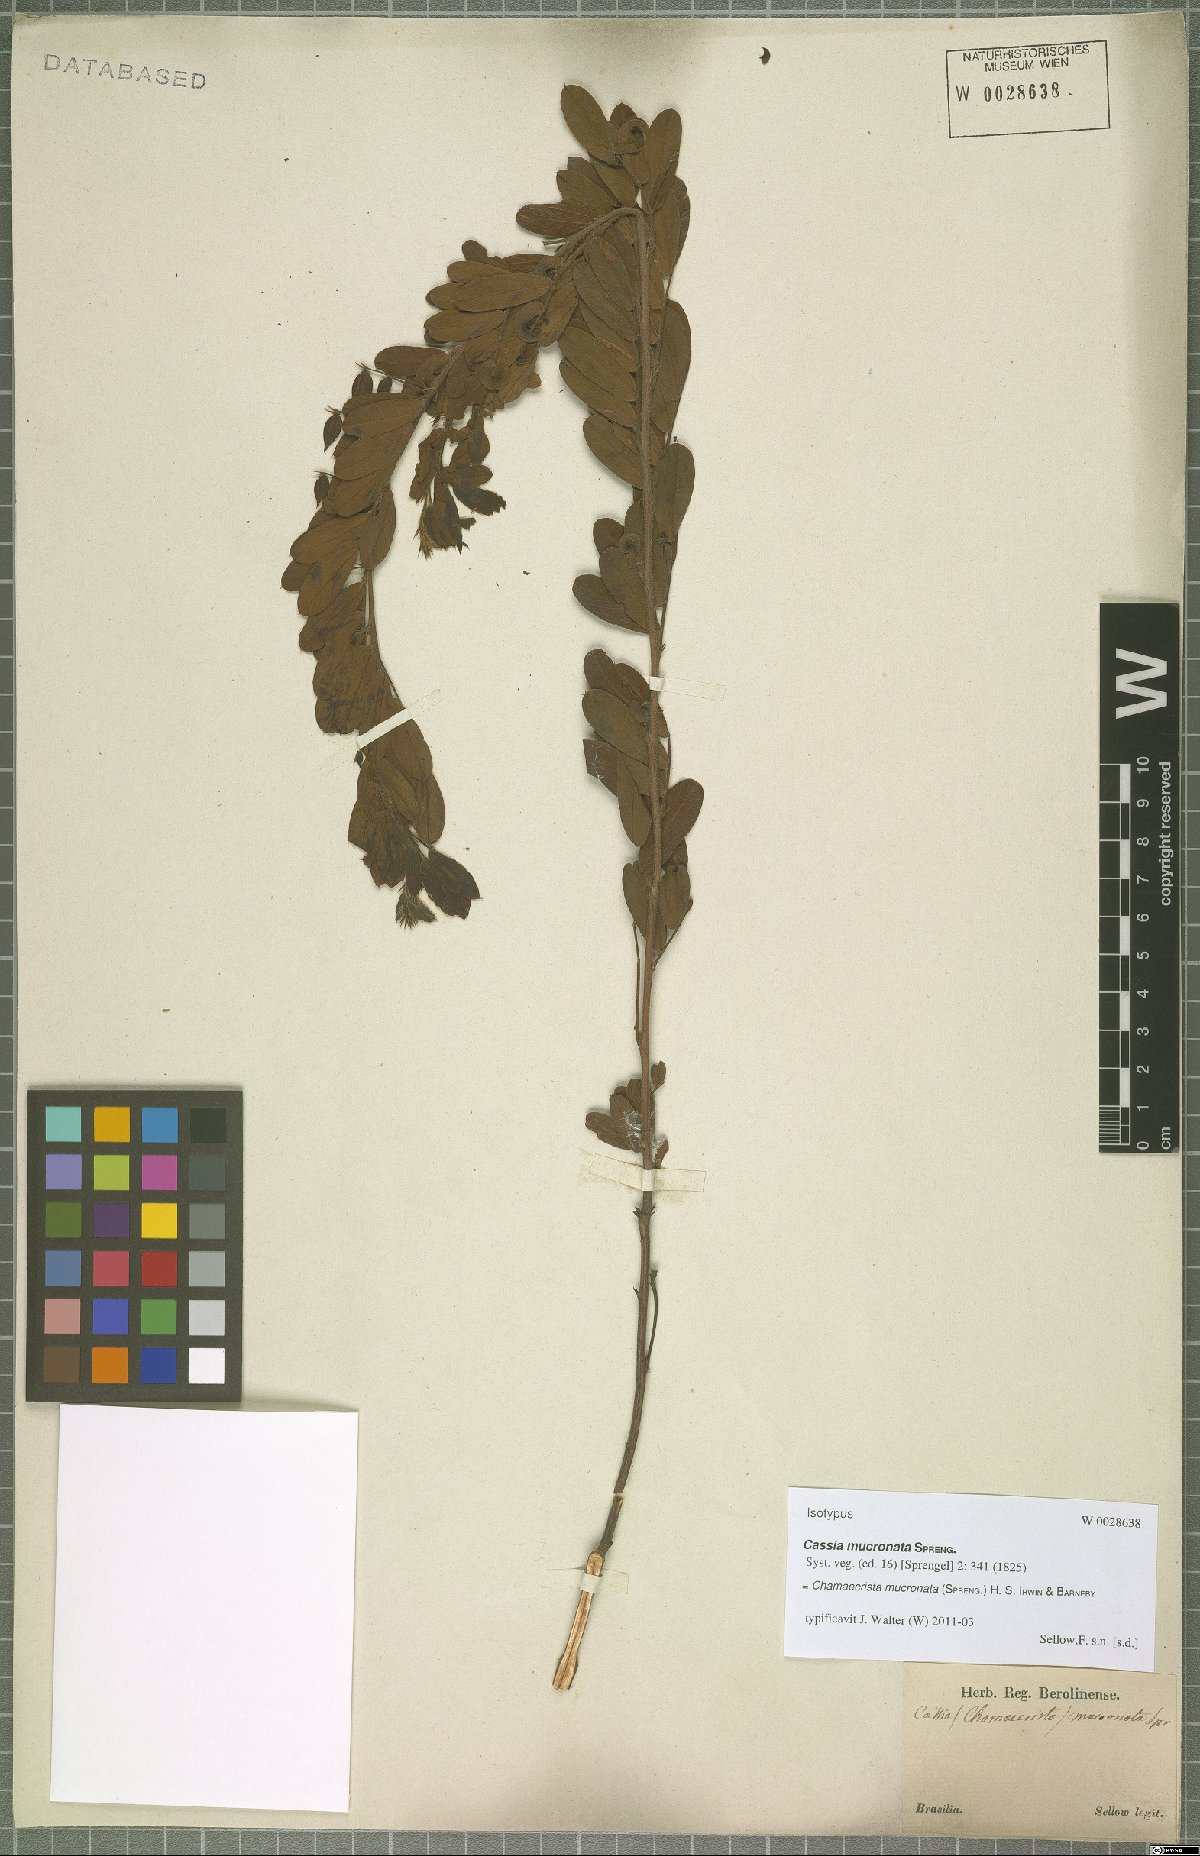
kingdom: Plantae
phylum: Tracheophyta
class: Magnoliopsida
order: Fabales
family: Fabaceae
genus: Chamaecrista
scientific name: Chamaecrista mucronata
